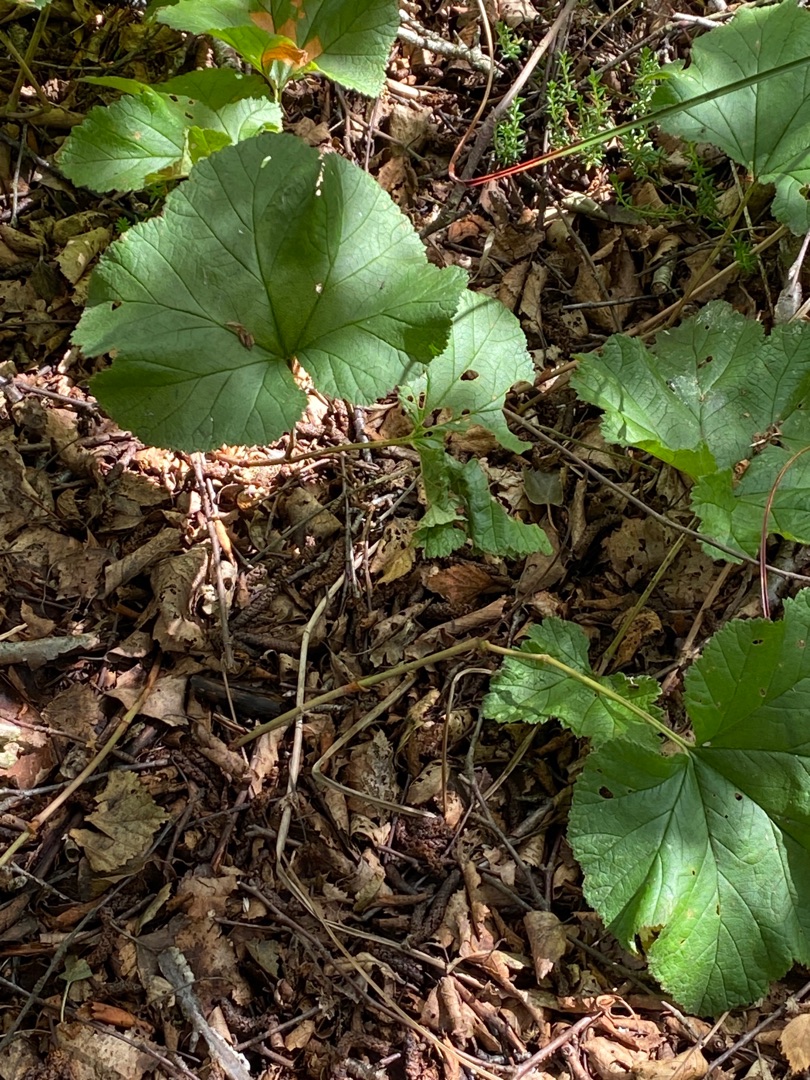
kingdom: Plantae
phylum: Tracheophyta
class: Magnoliopsida
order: Rosales
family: Rosaceae
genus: Rubus
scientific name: Rubus chamaemorus
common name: Multebær
